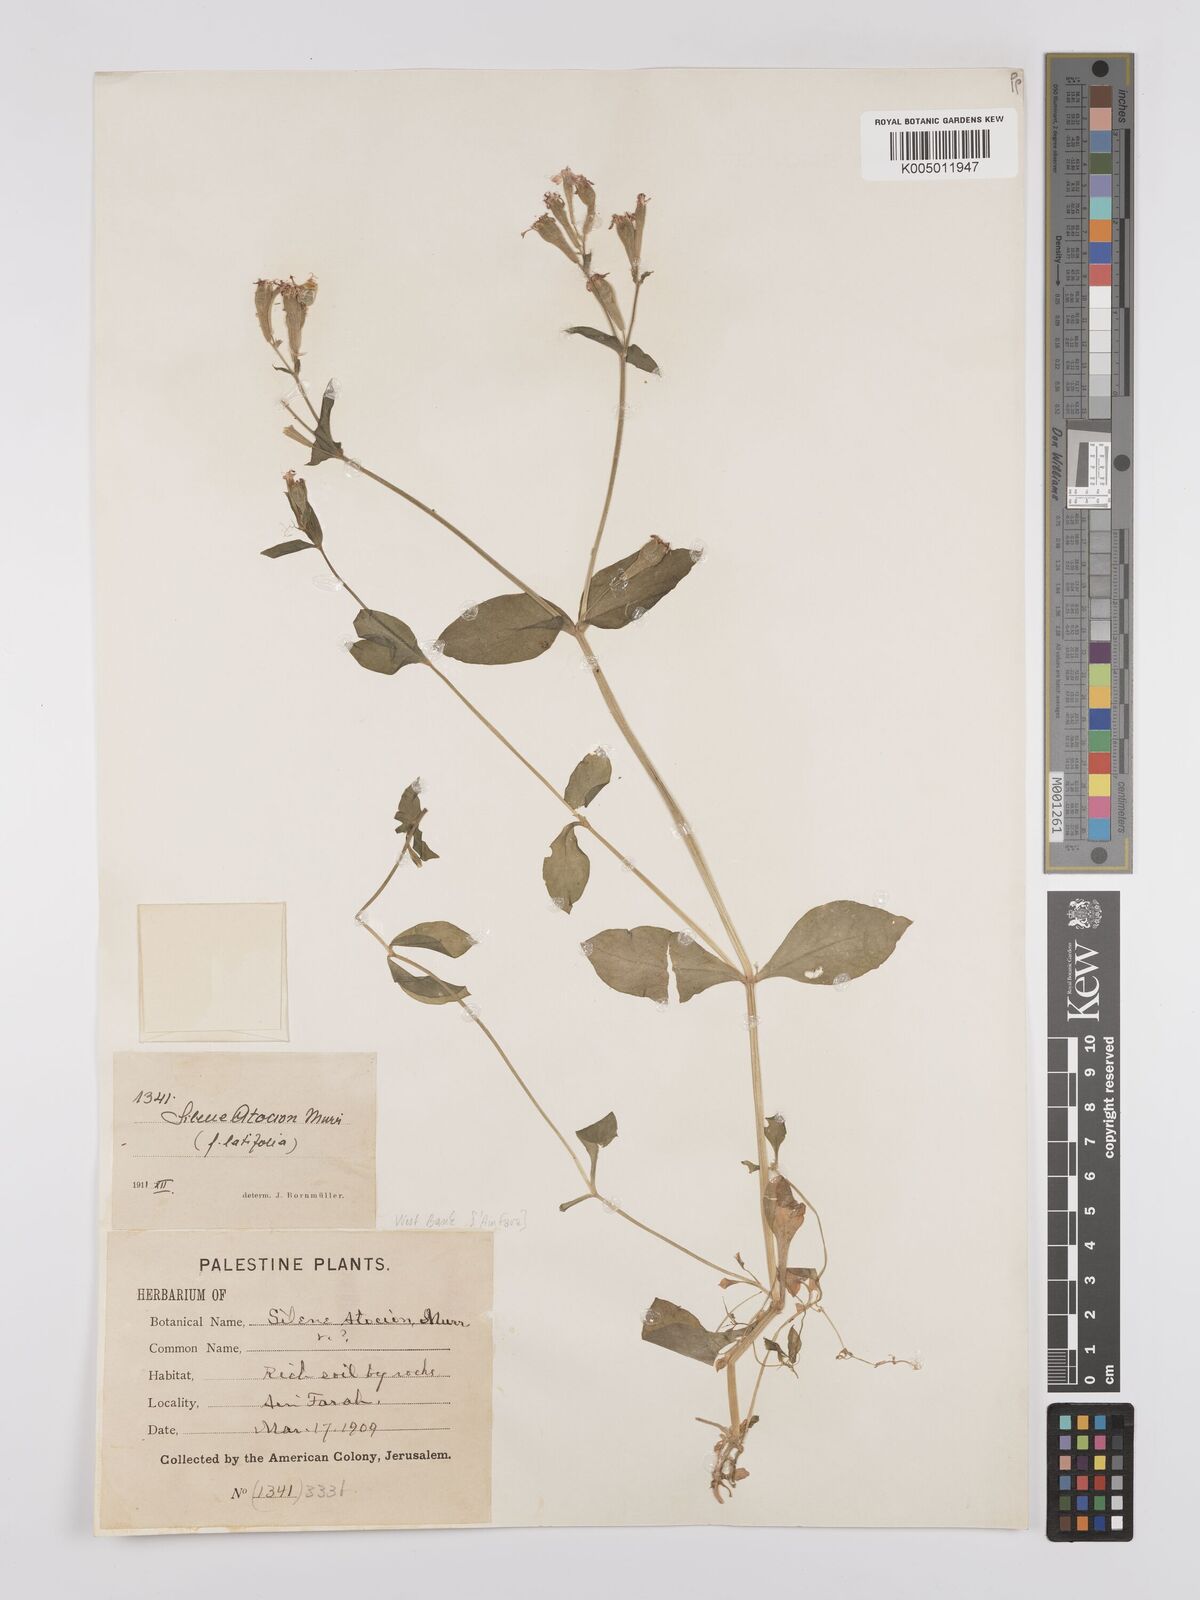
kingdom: Plantae
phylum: Tracheophyta
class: Magnoliopsida
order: Caryophyllales
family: Caryophyllaceae
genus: Silene
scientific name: Silene aegyptiaca
